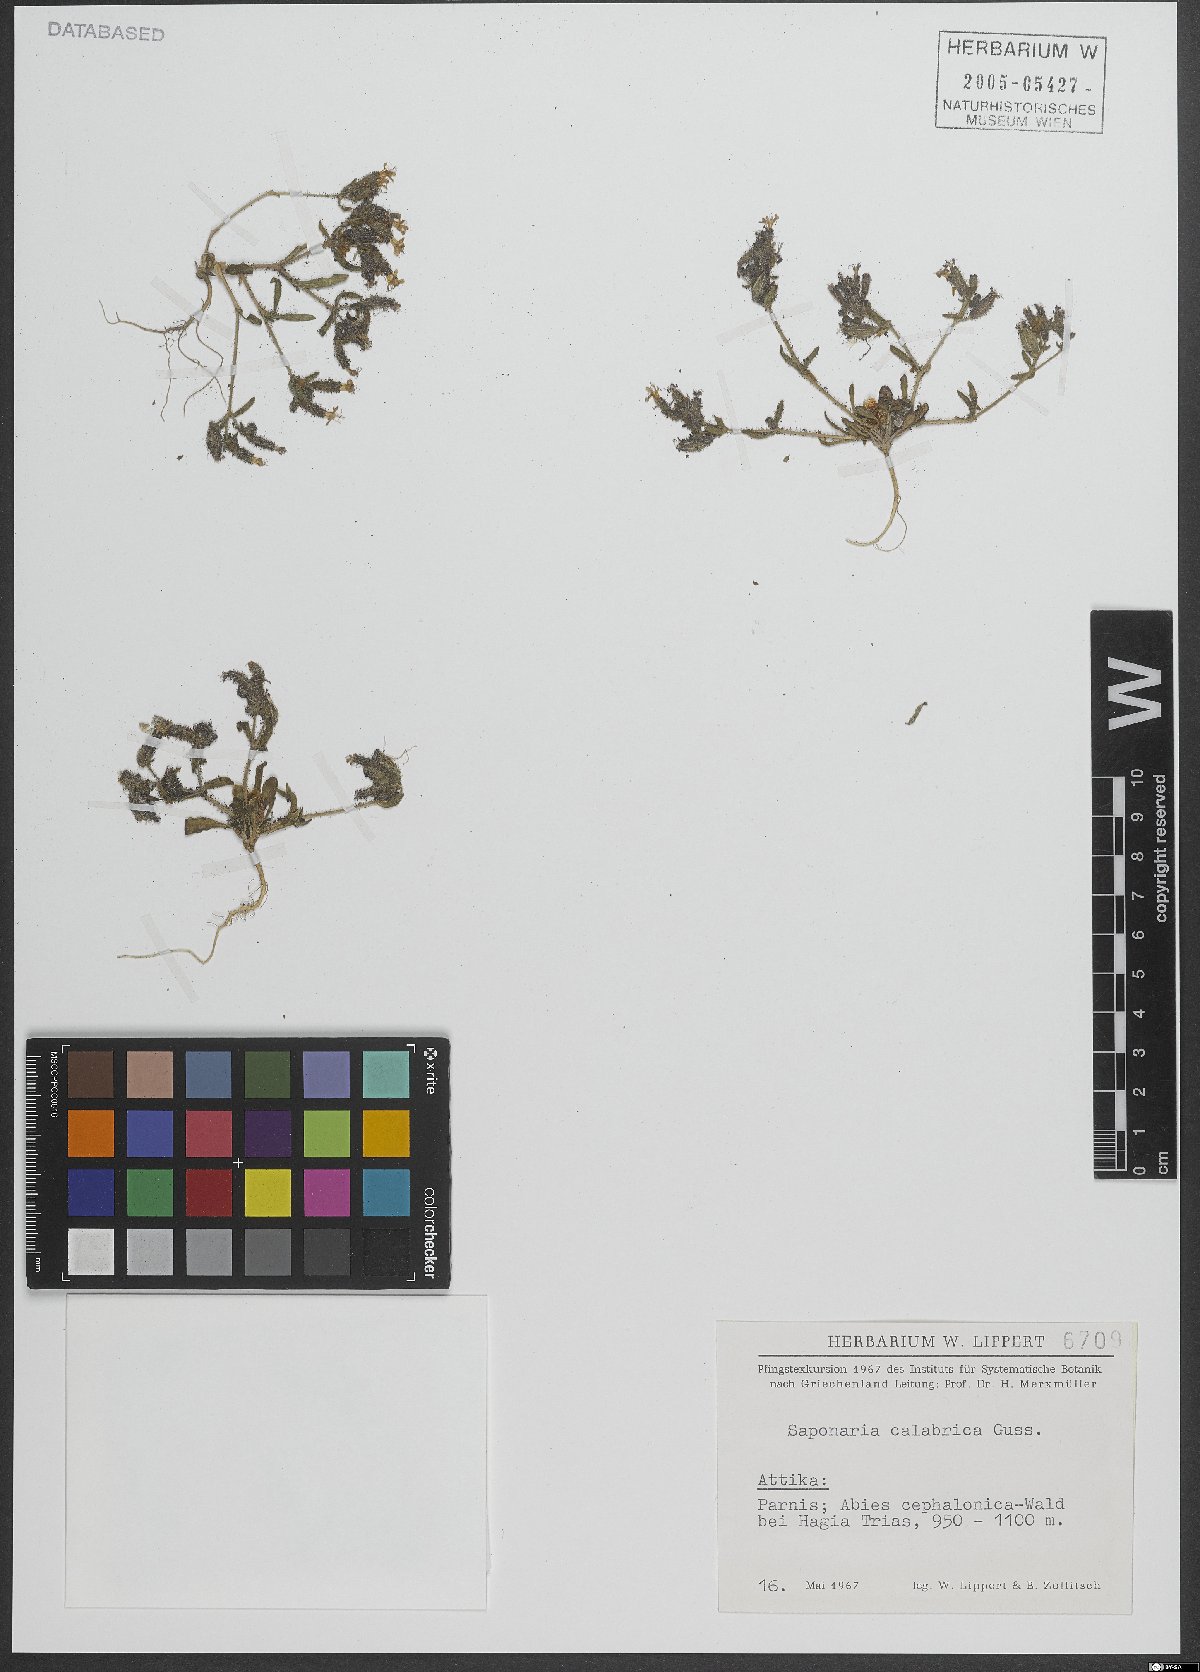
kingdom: Plantae
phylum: Tracheophyta
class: Magnoliopsida
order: Caryophyllales
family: Caryophyllaceae
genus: Saponaria
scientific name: Saponaria calabrica
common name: Adriatic soapwort
